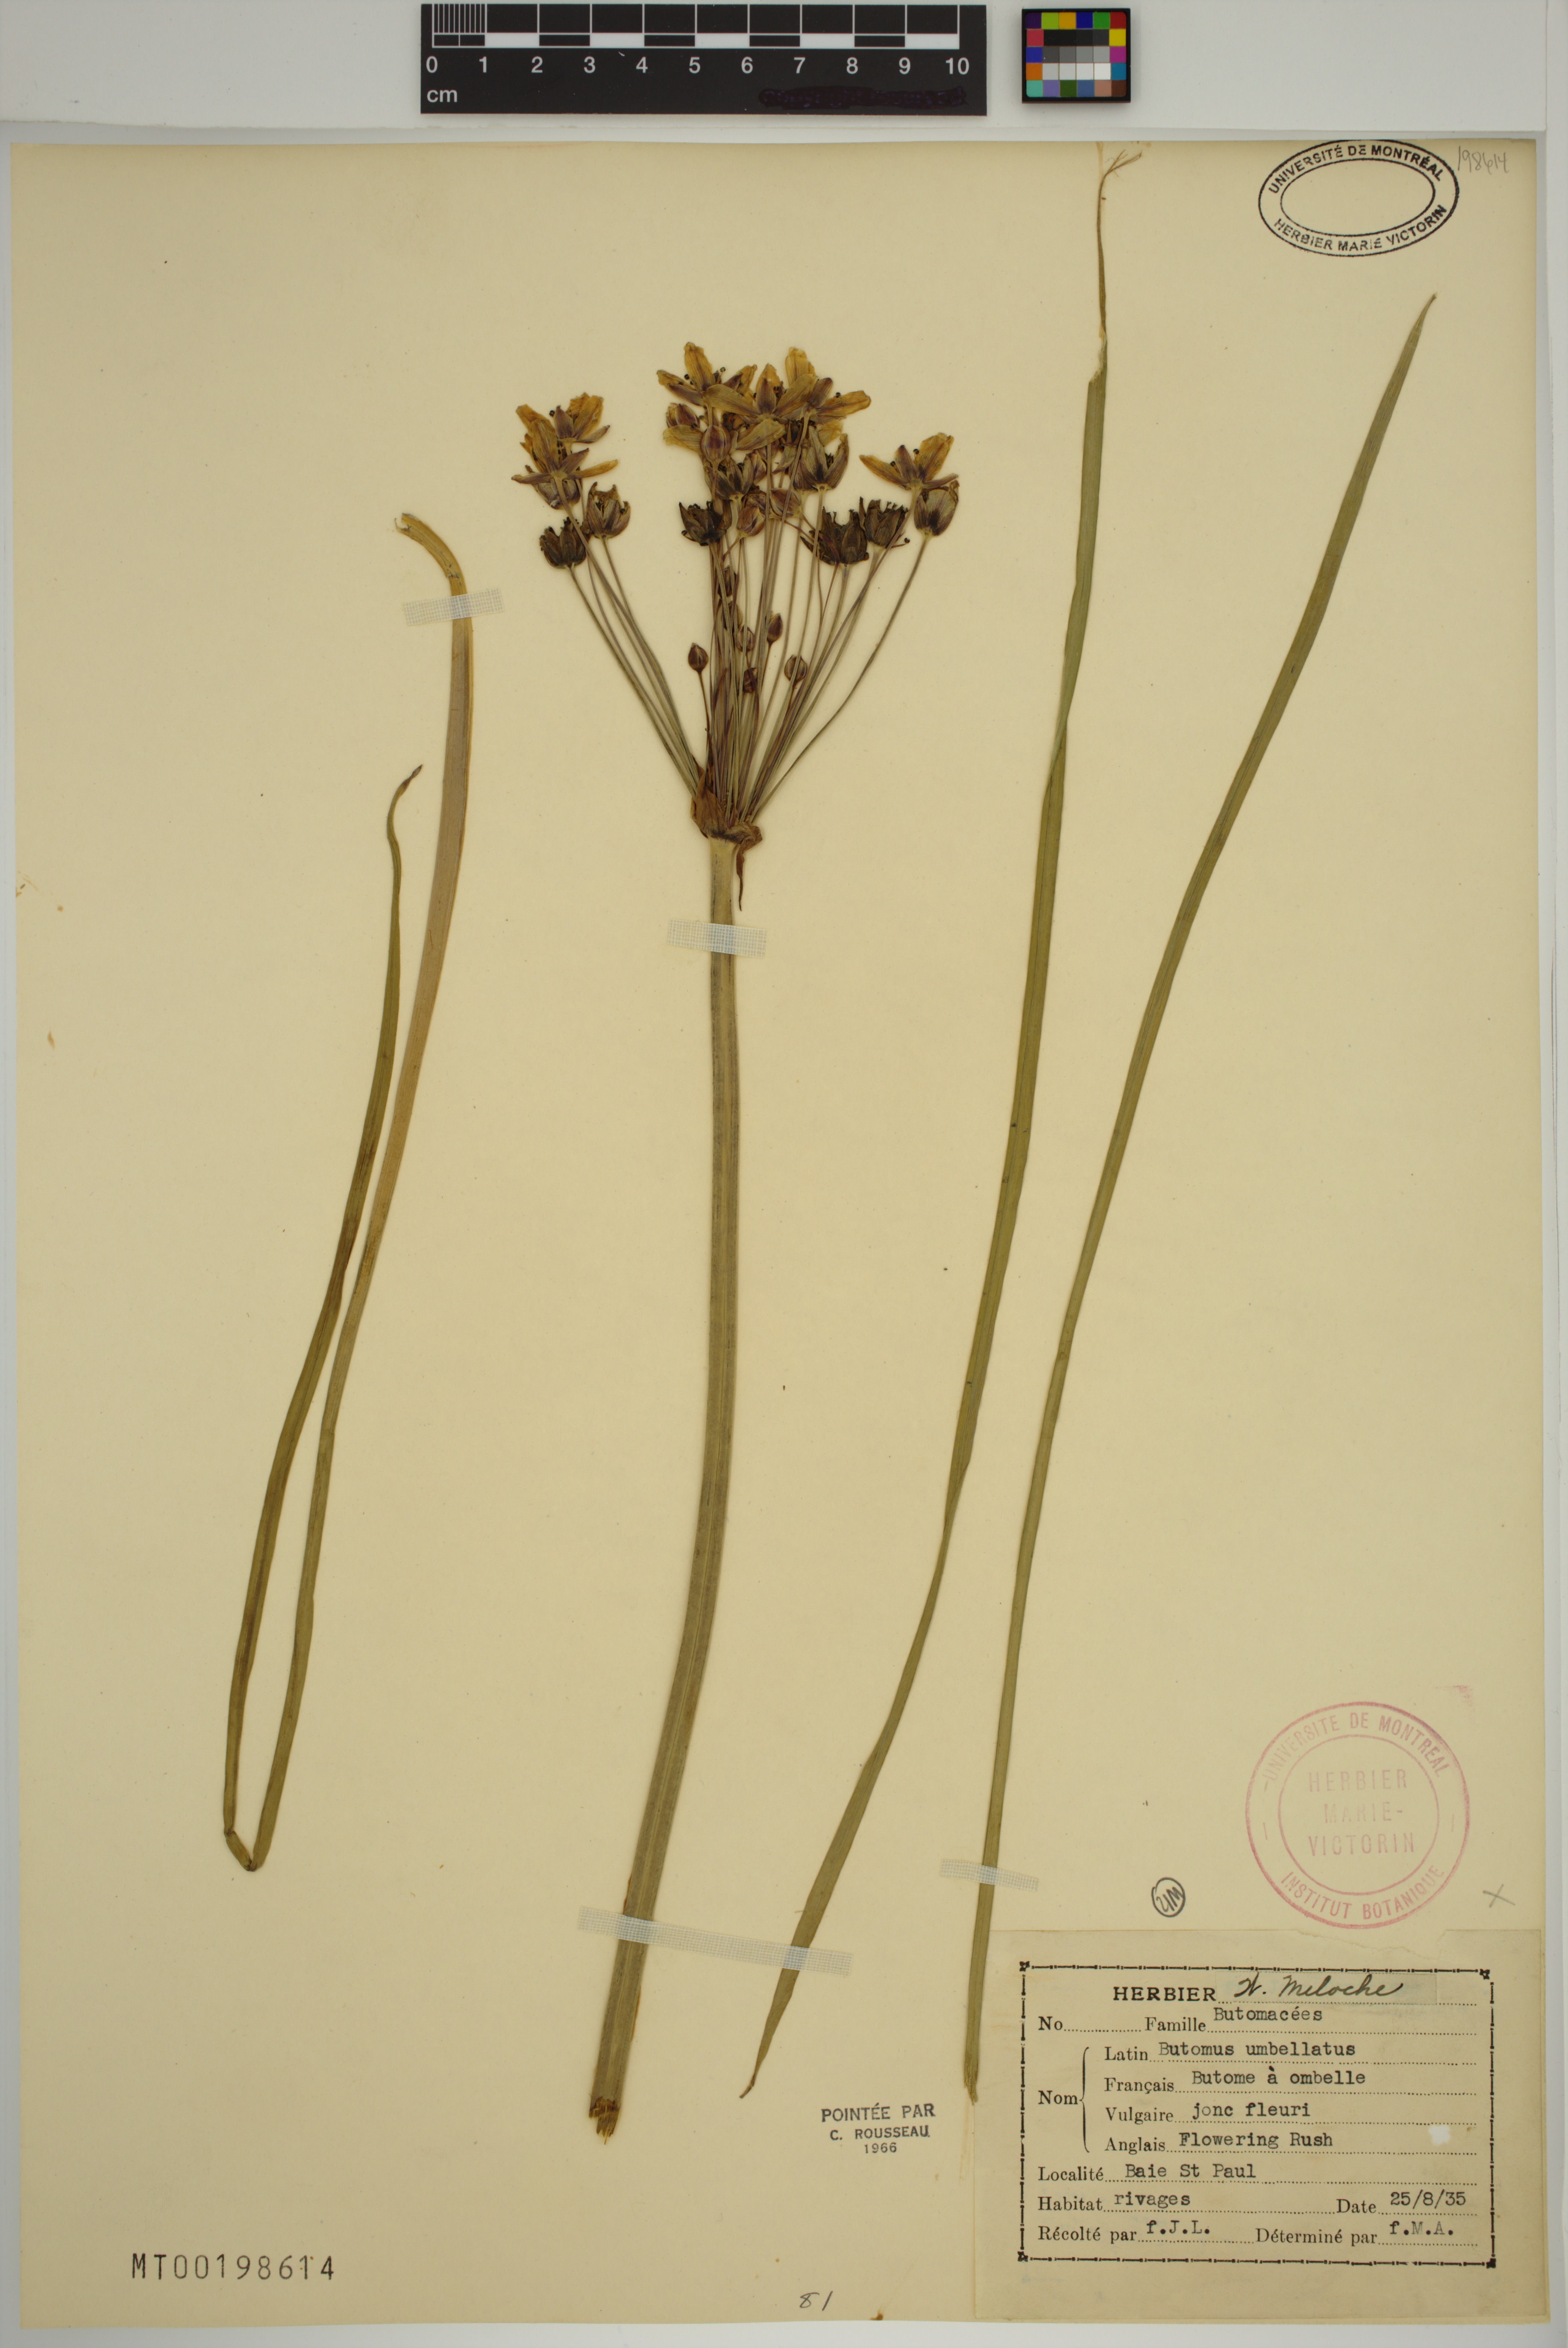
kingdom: Plantae
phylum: Tracheophyta
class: Liliopsida
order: Alismatales
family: Butomaceae
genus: Butomus
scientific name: Butomus umbellatus
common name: Flowering-rush
